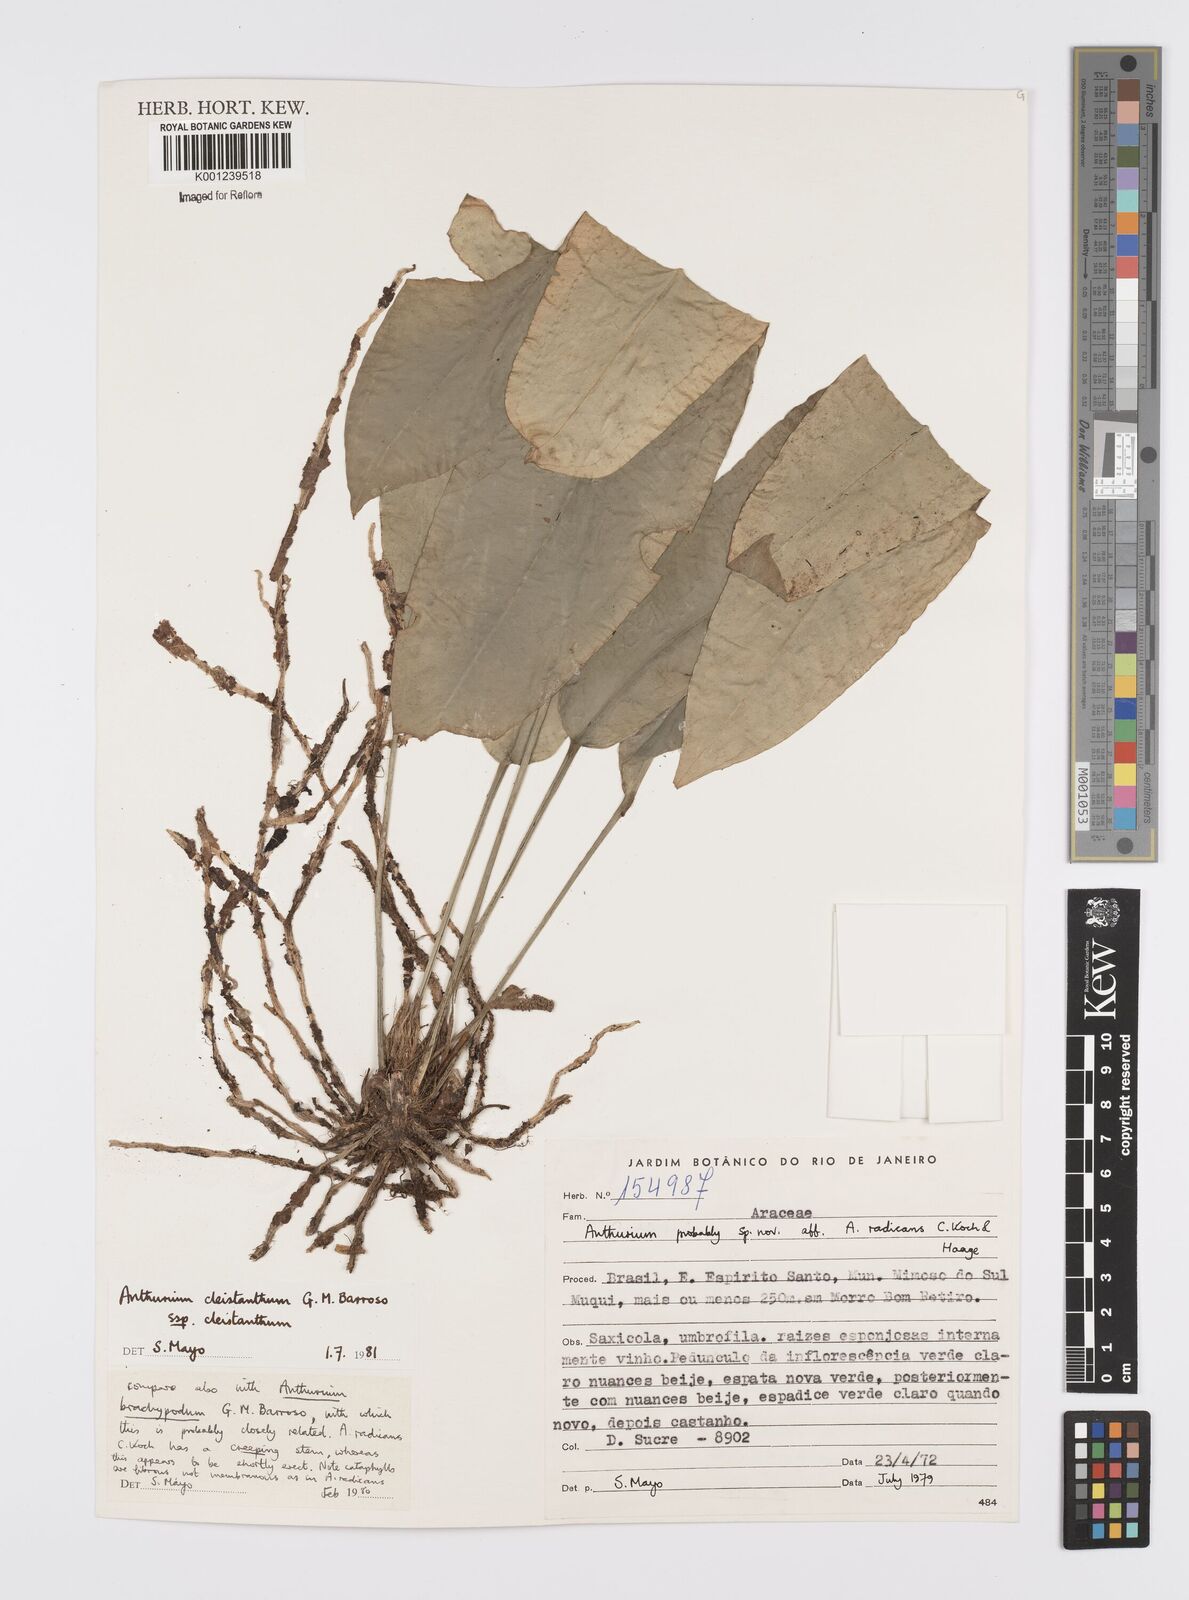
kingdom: Plantae
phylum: Tracheophyta
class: Liliopsida
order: Alismatales
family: Araceae
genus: Anthurium
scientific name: Anthurium cleistanthum
